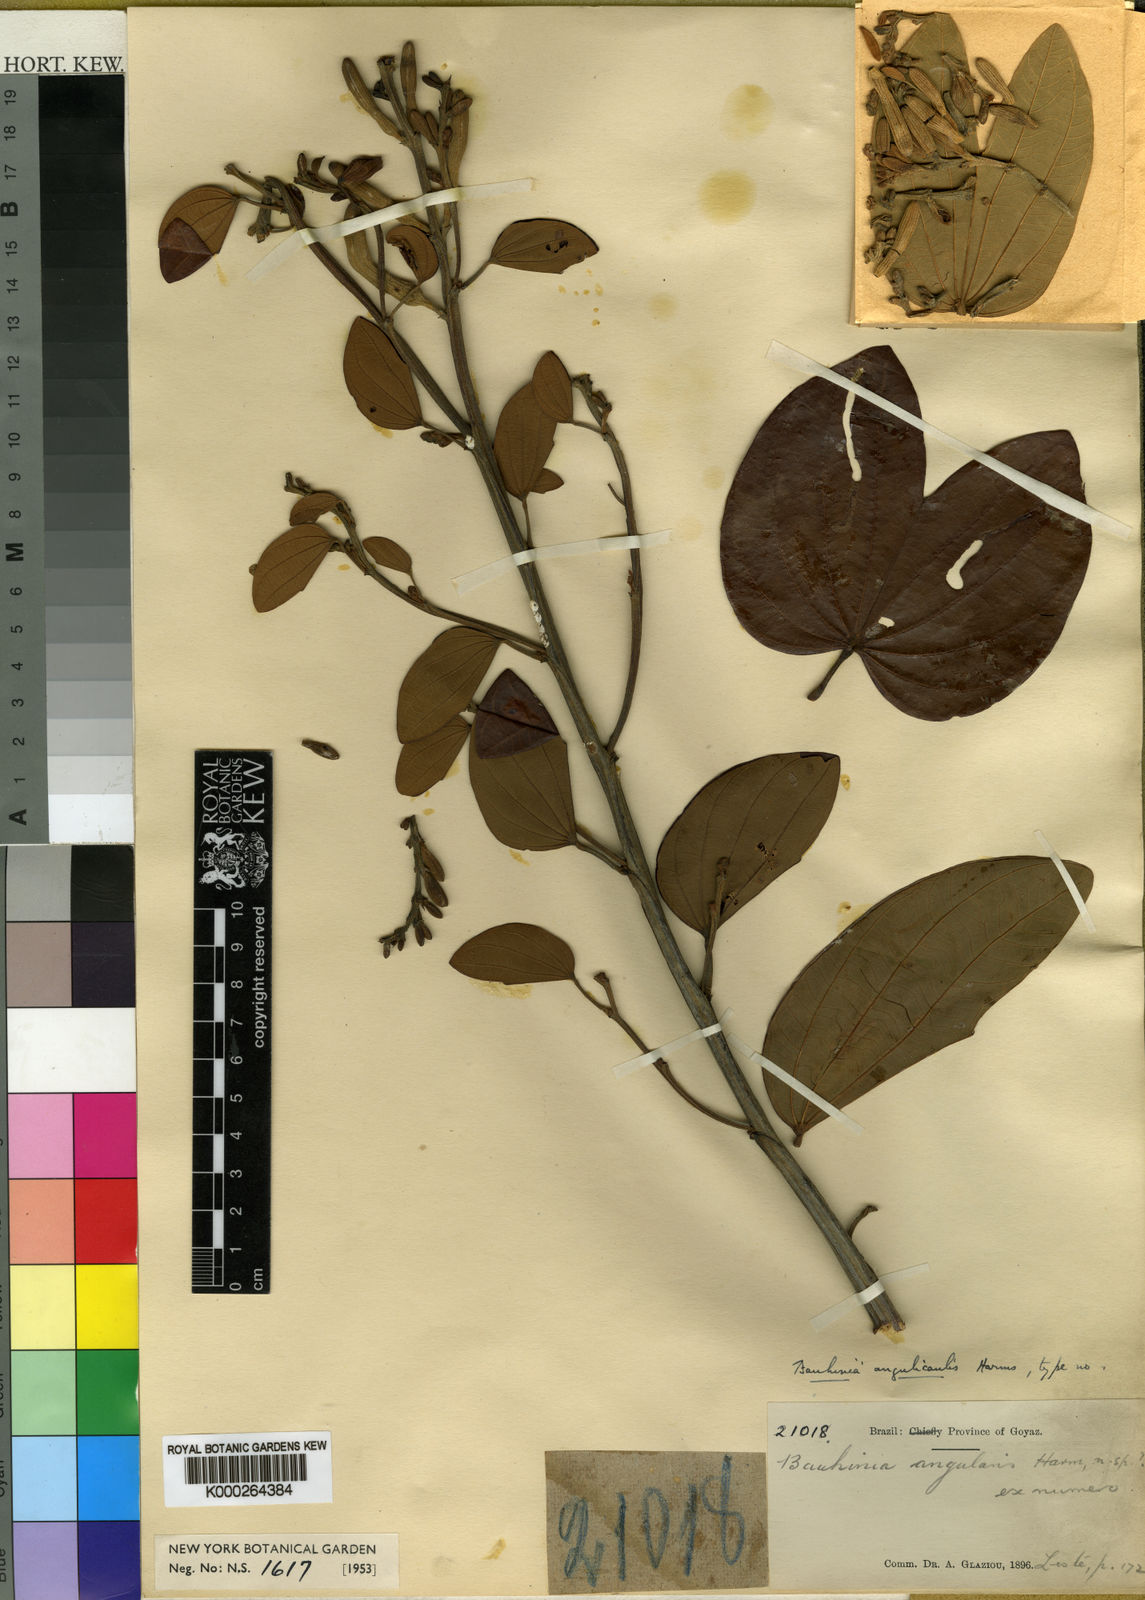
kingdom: Plantae
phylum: Tracheophyta
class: Magnoliopsida
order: Fabales
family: Fabaceae
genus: Bauhinia
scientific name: Bauhinia ungulata
